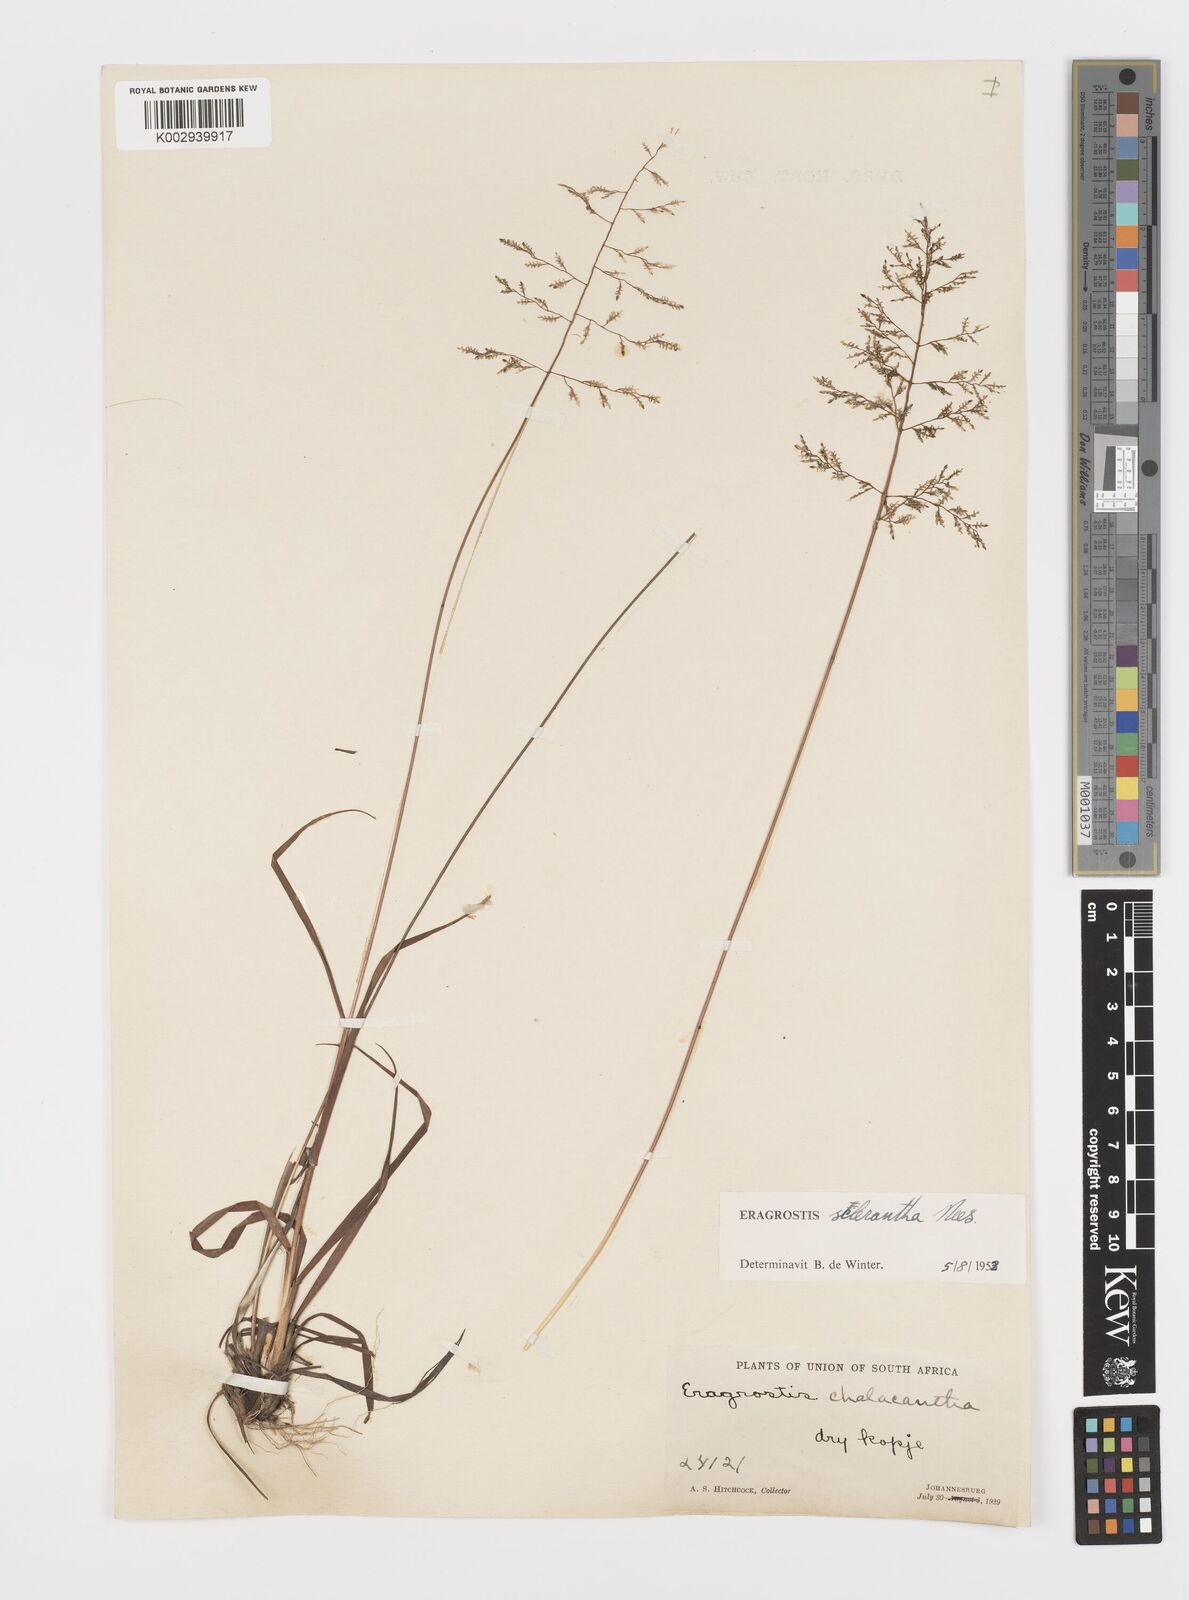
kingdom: Plantae
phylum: Tracheophyta
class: Liliopsida
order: Poales
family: Poaceae
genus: Eragrostis
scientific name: Eragrostis sclerantha
